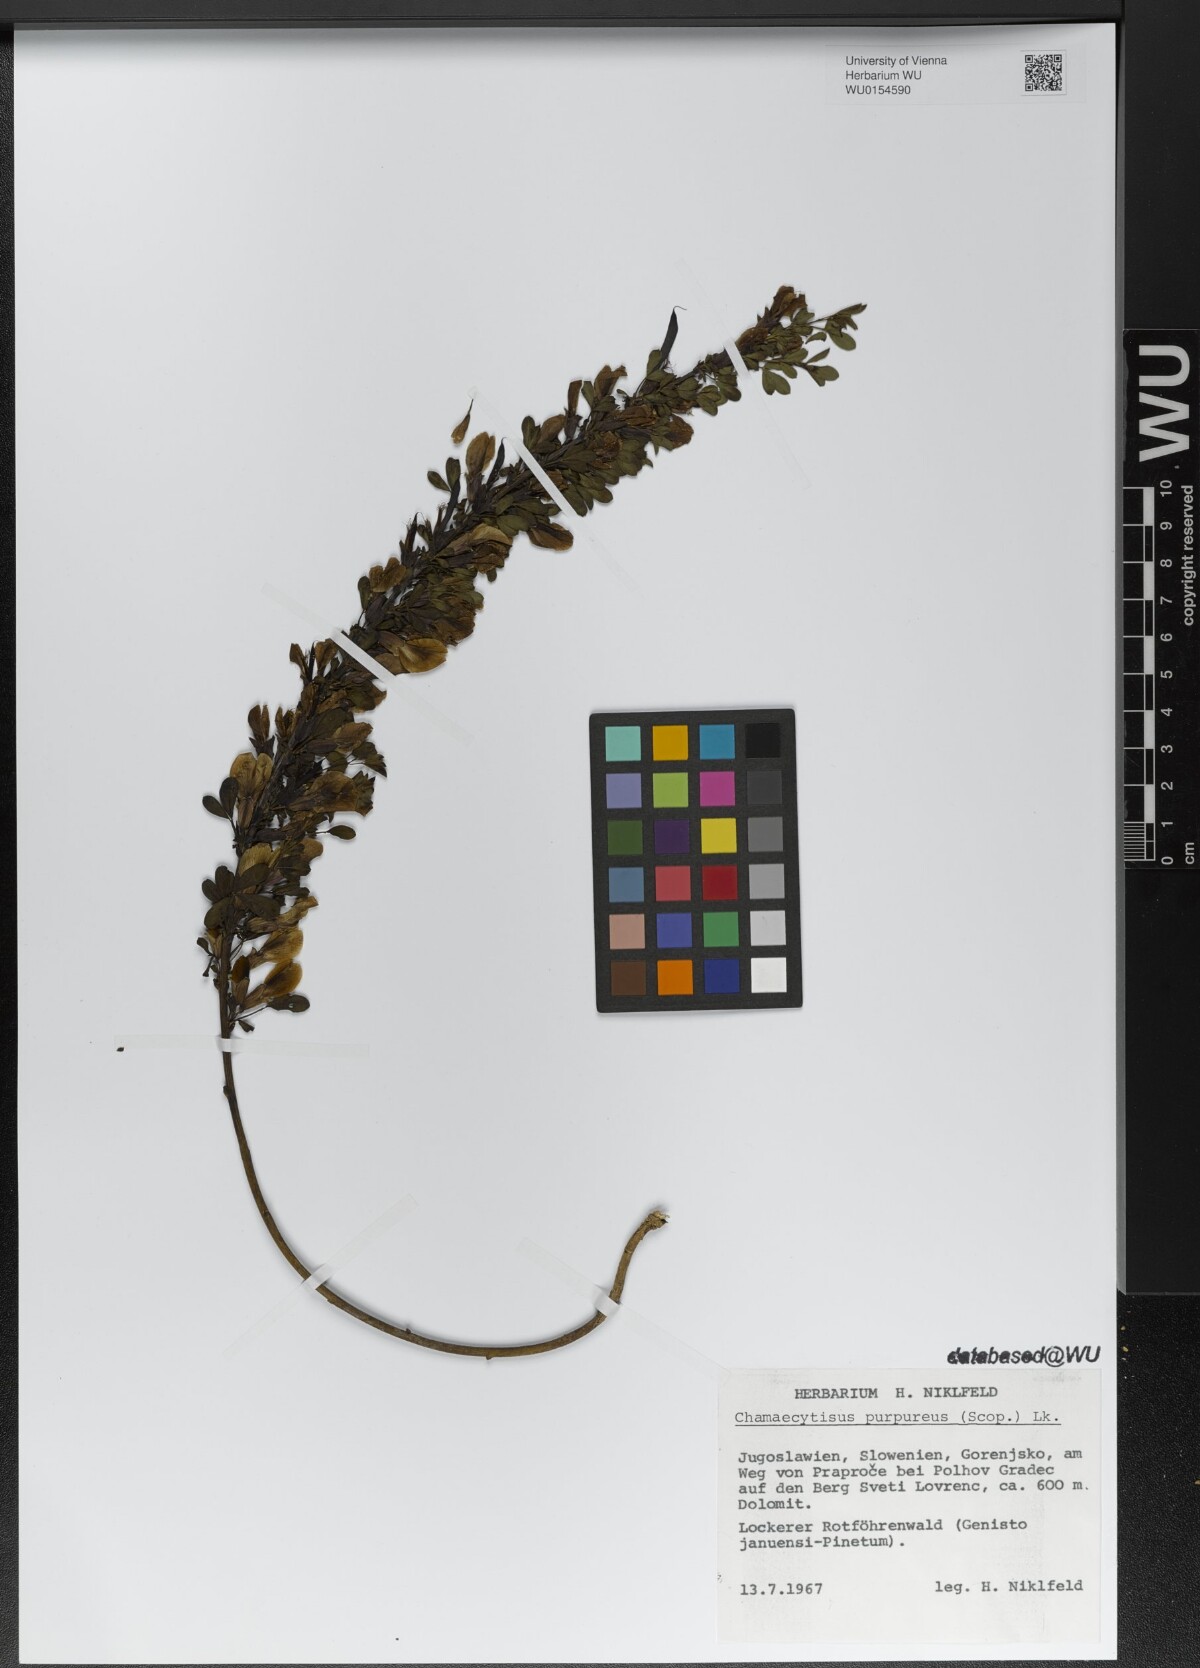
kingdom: Plantae
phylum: Tracheophyta
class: Magnoliopsida
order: Fabales
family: Fabaceae
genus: Chamaecytisus
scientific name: Chamaecytisus purpureus
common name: Purple broom
